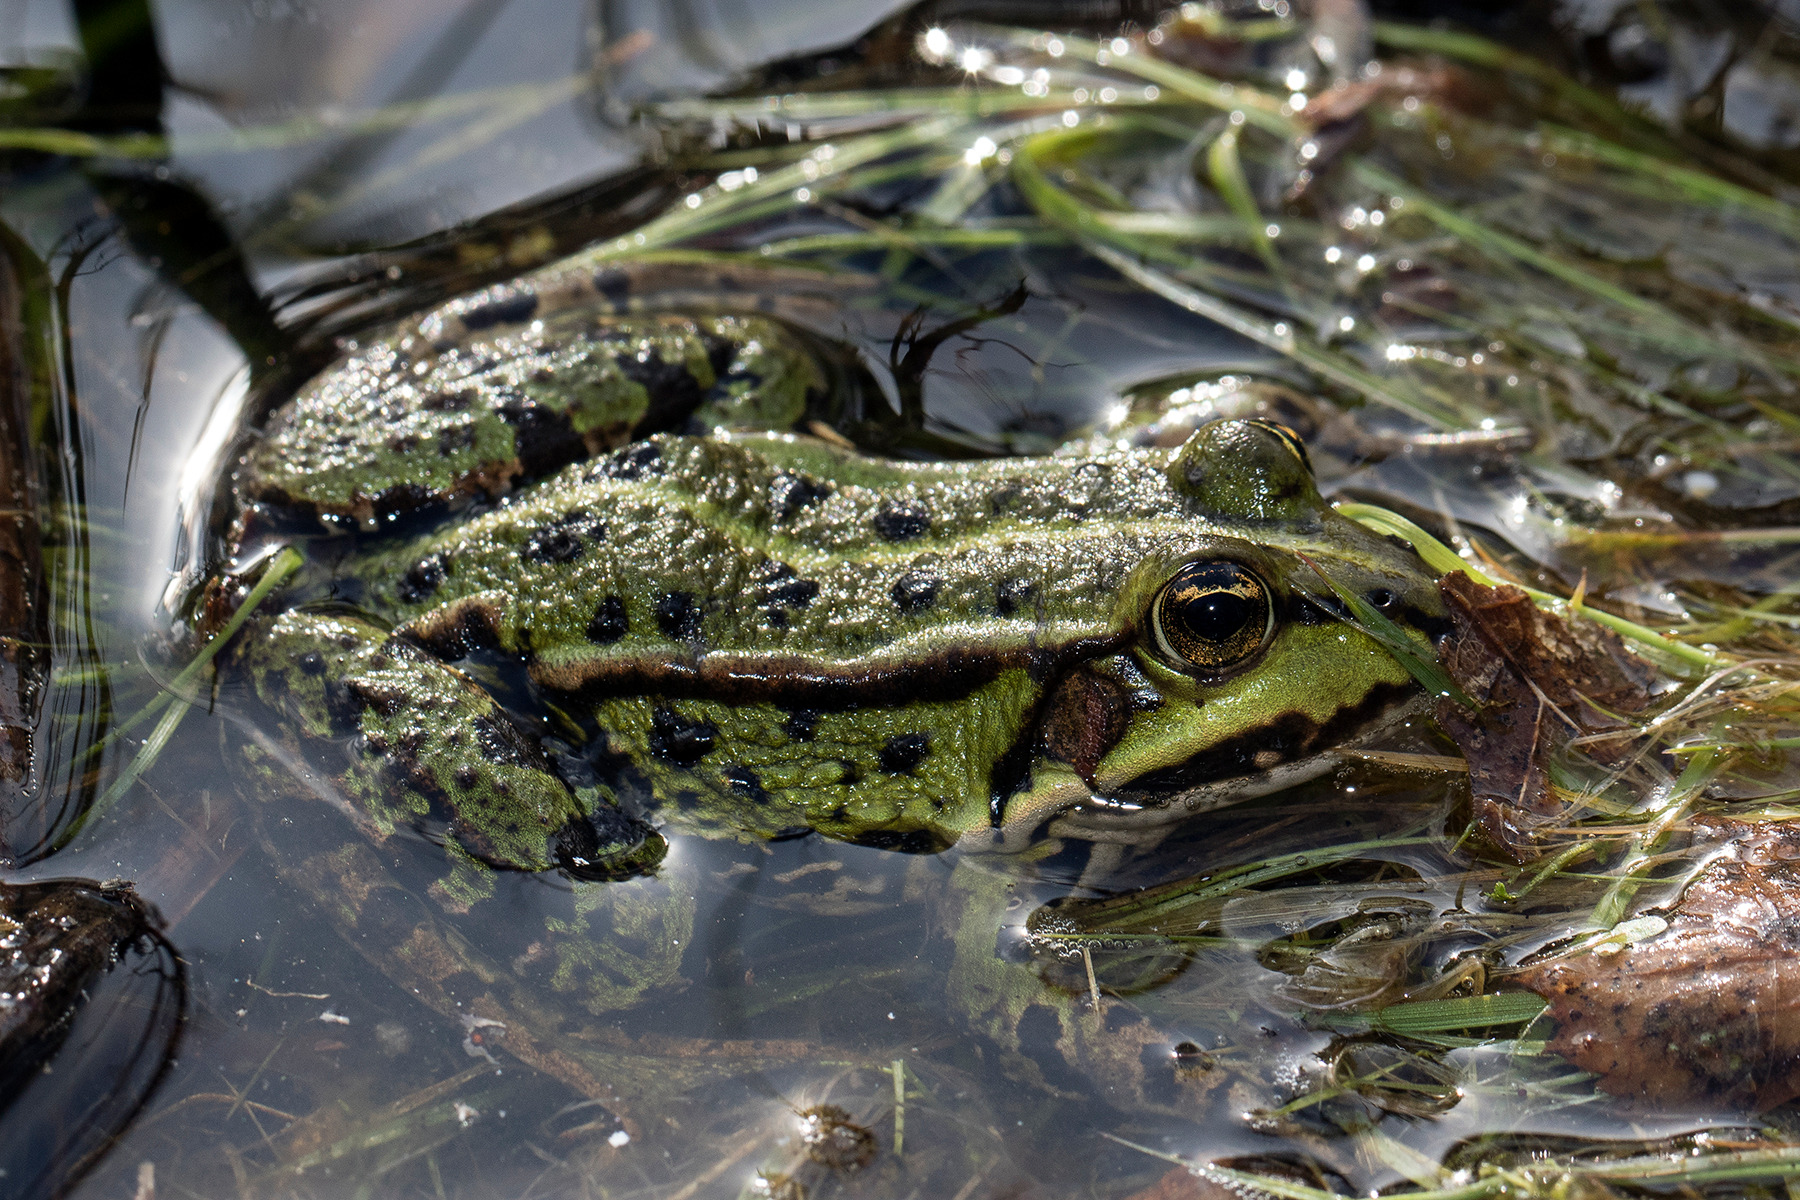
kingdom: Animalia
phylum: Chordata
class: Amphibia
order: Anura
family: Ranidae
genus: Pelophylax
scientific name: Pelophylax lessonae
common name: Grøn frø
